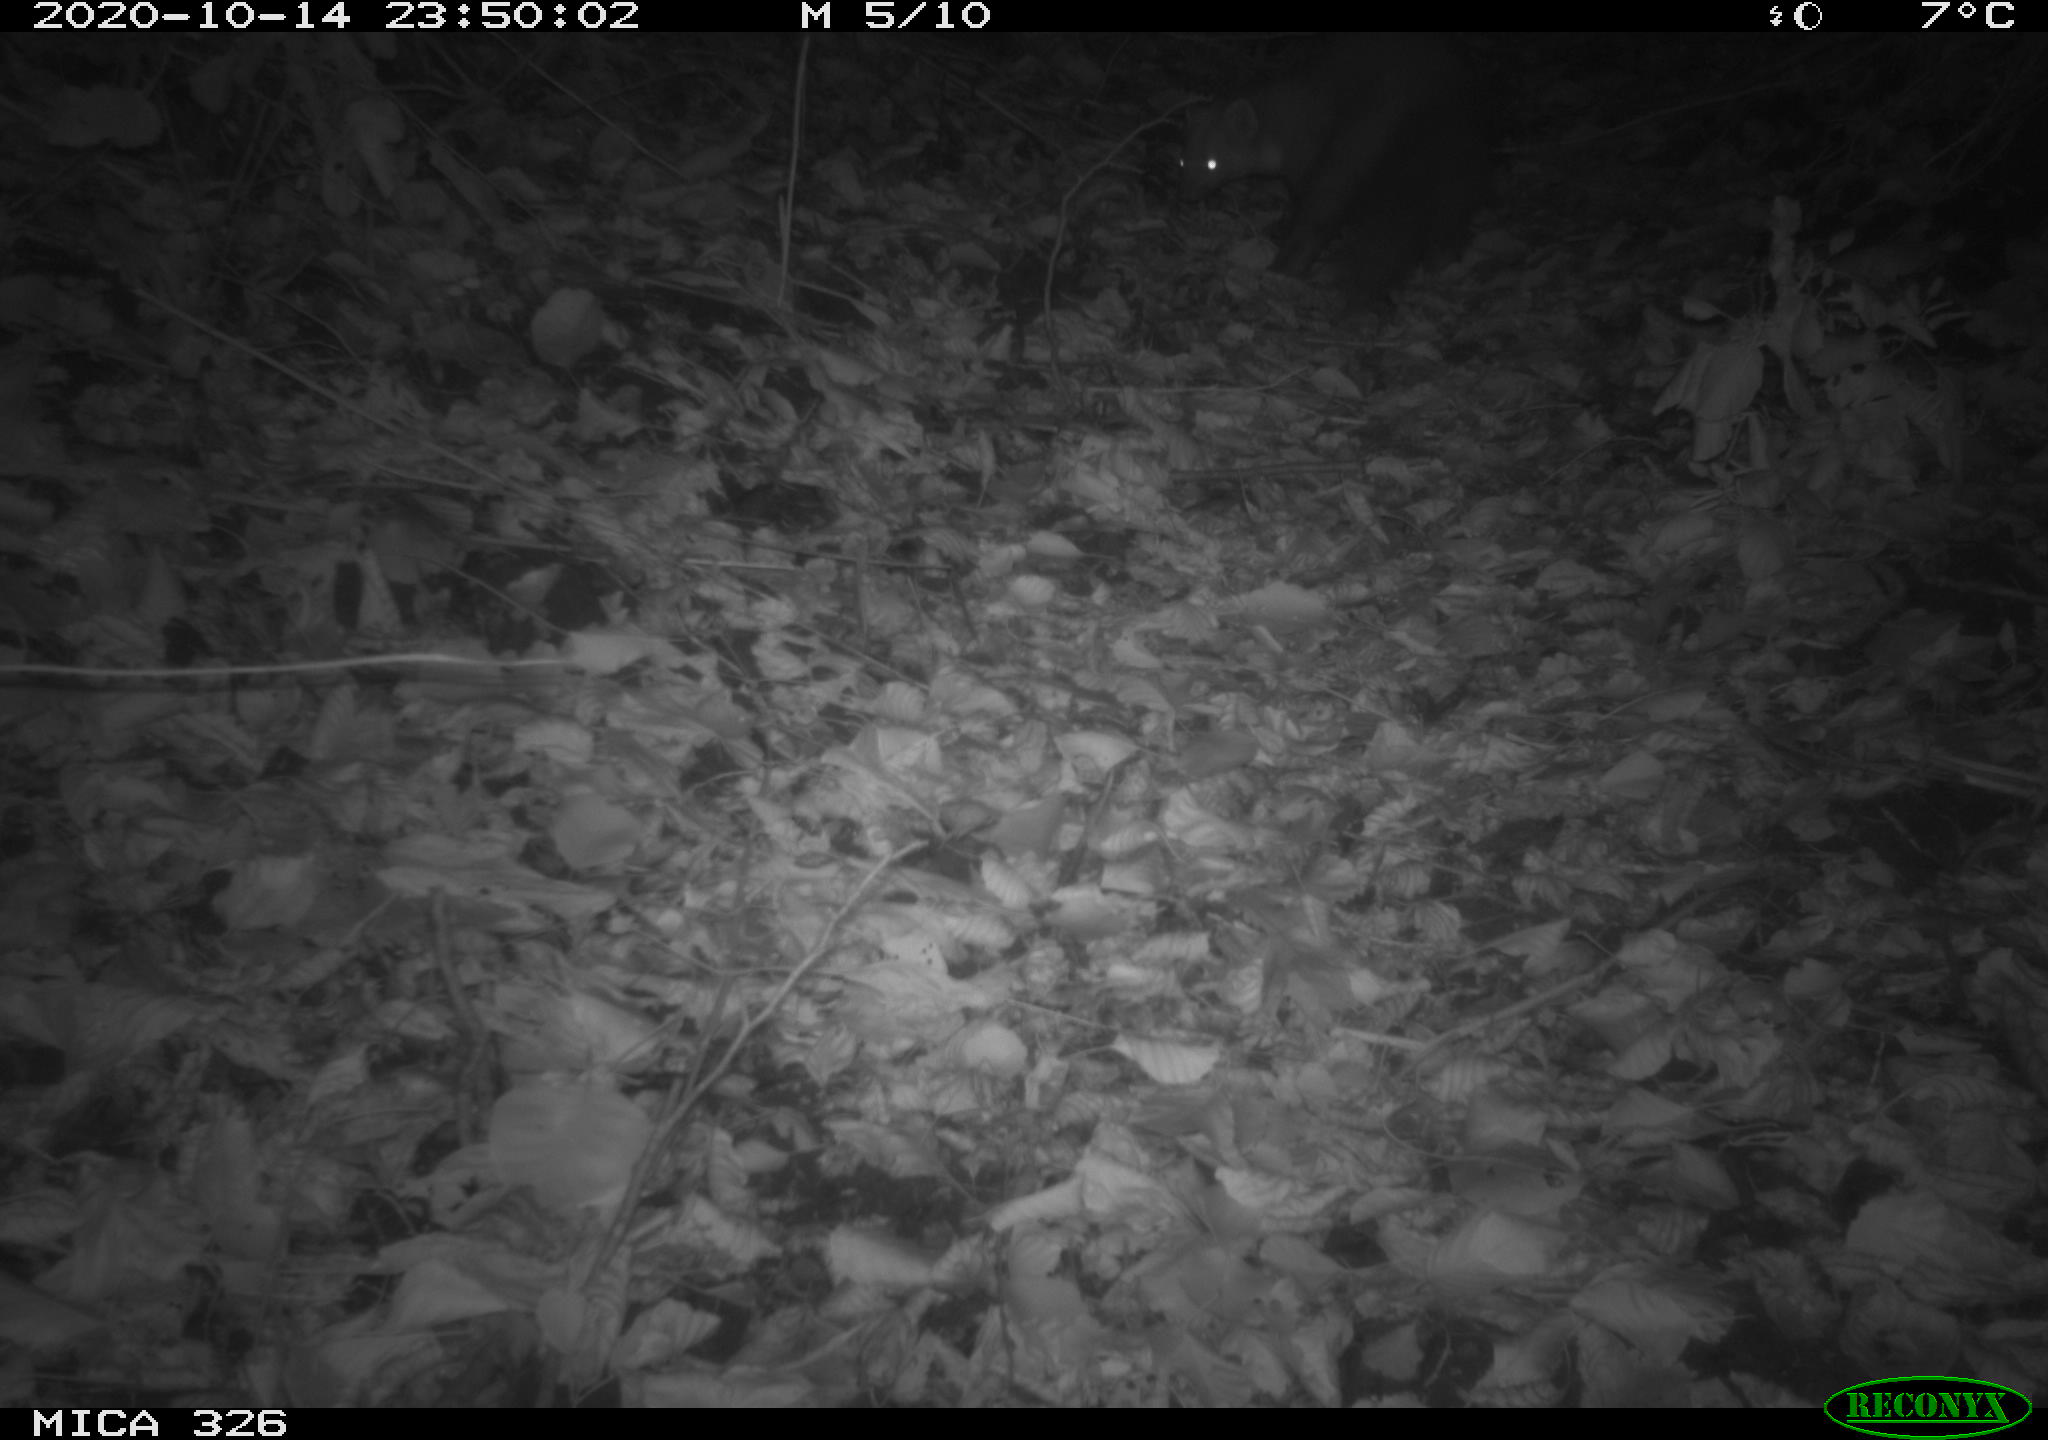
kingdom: Animalia
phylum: Chordata
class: Mammalia
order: Carnivora
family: Mustelidae
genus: Martes
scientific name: Martes foina
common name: Beech marten
